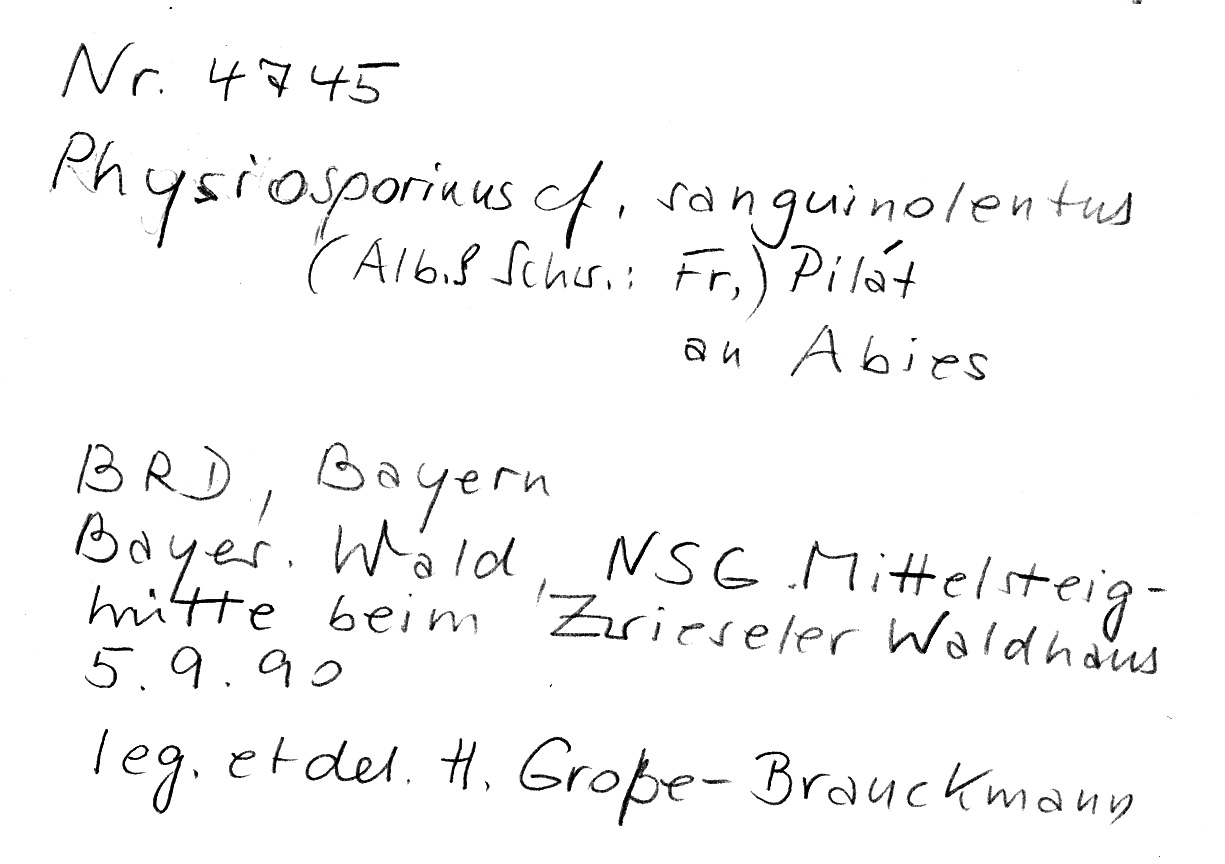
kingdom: Fungi
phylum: Basidiomycota
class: Agaricomycetes
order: Polyporales
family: Meripilaceae
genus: Rigidoporus
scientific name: Rigidoporus sanguinolentus
